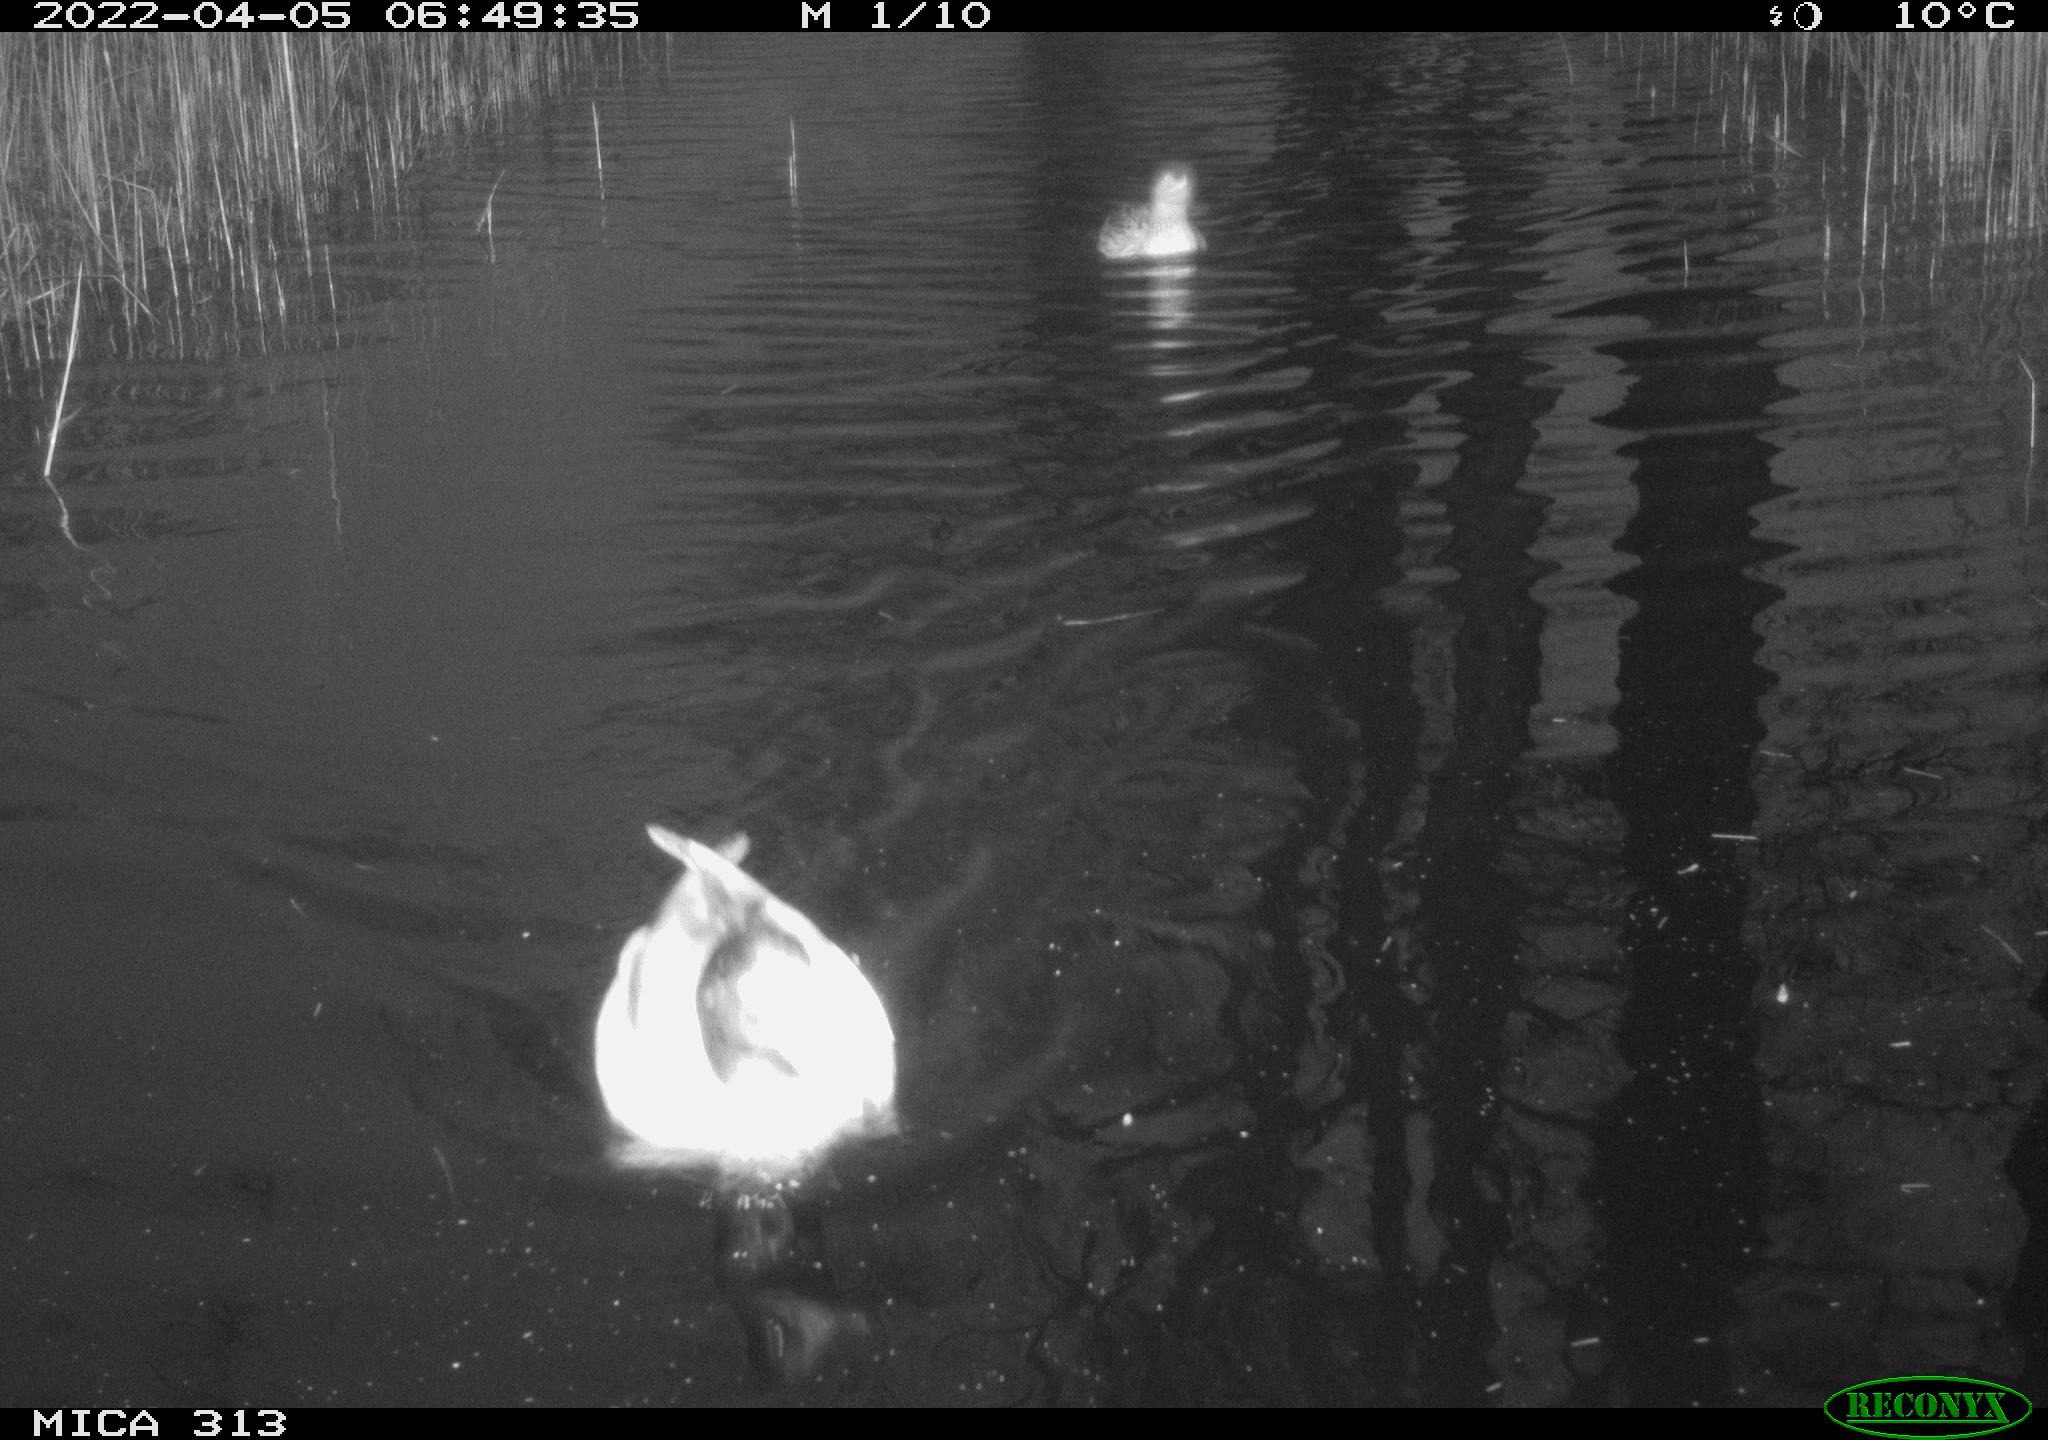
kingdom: Animalia
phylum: Chordata
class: Aves
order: Anseriformes
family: Anatidae
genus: Anas
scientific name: Anas platyrhynchos
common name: Mallard
